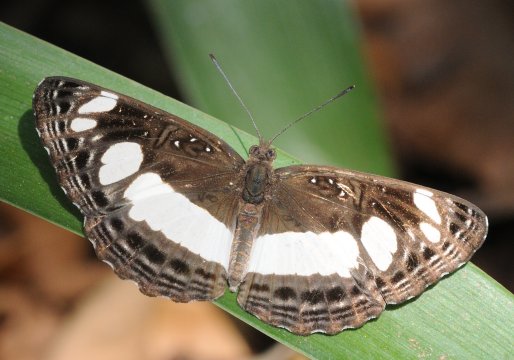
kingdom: Animalia
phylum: Arthropoda
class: Insecta
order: Lepidoptera
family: Nymphalidae
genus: Neptis
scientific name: Neptis saclava
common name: Spotted Sailer
